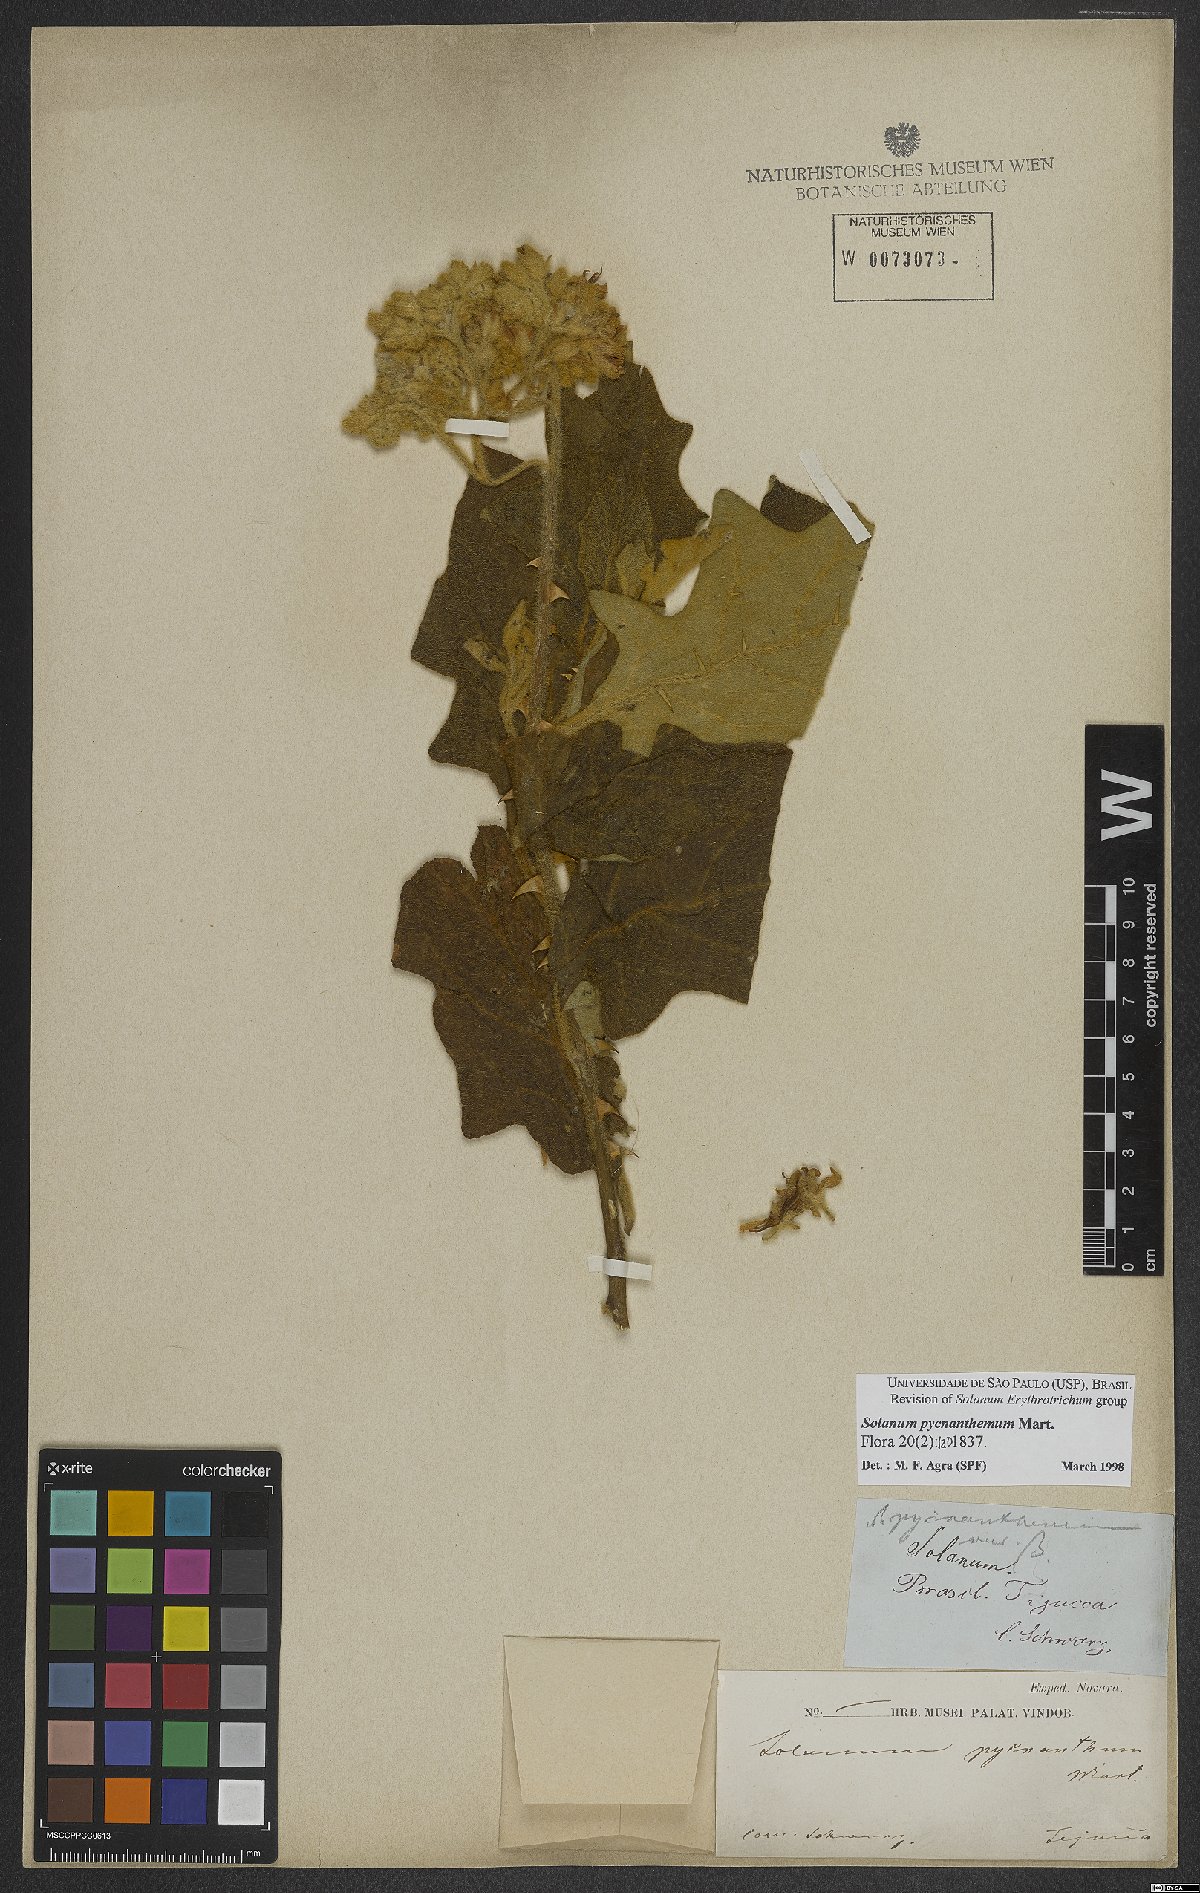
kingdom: Plantae
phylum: Tracheophyta
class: Magnoliopsida
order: Solanales
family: Solanaceae
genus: Solanum
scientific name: Solanum pycnanthemum
